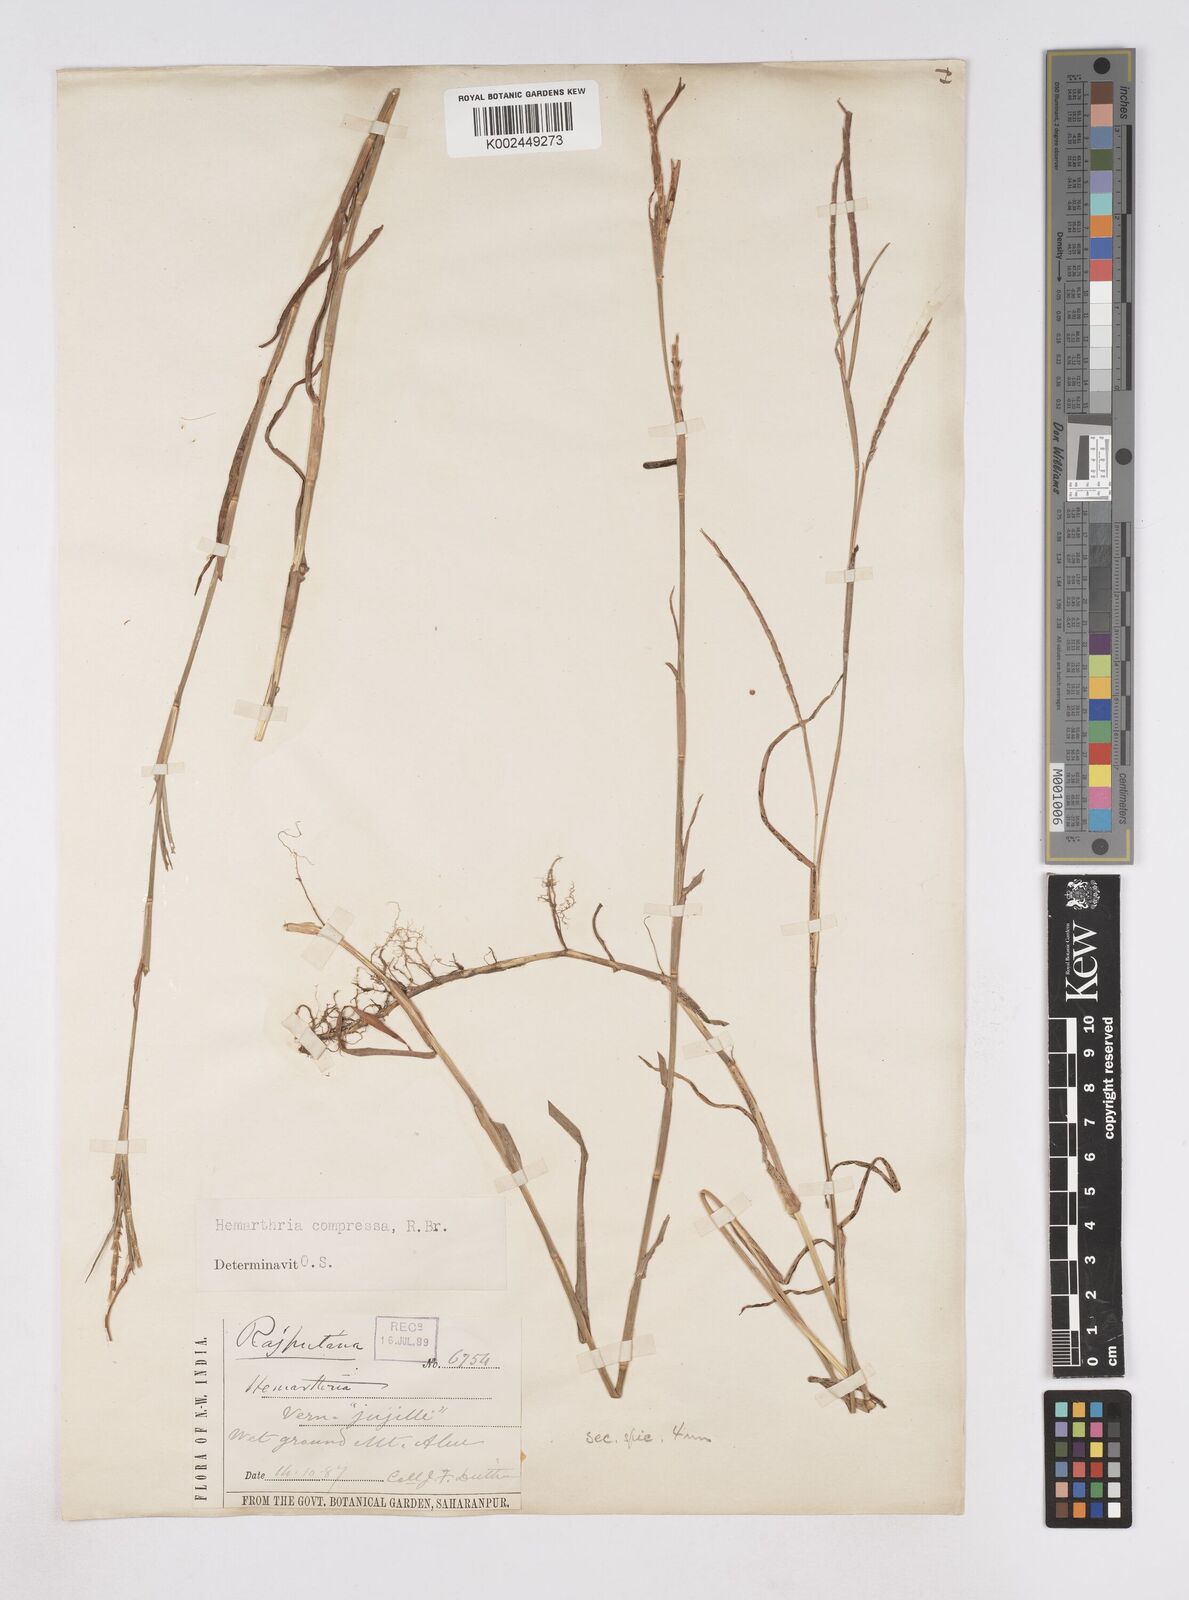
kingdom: Plantae
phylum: Tracheophyta
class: Liliopsida
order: Poales
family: Poaceae
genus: Hemarthria
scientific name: Hemarthria compressa
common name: Whip grass
